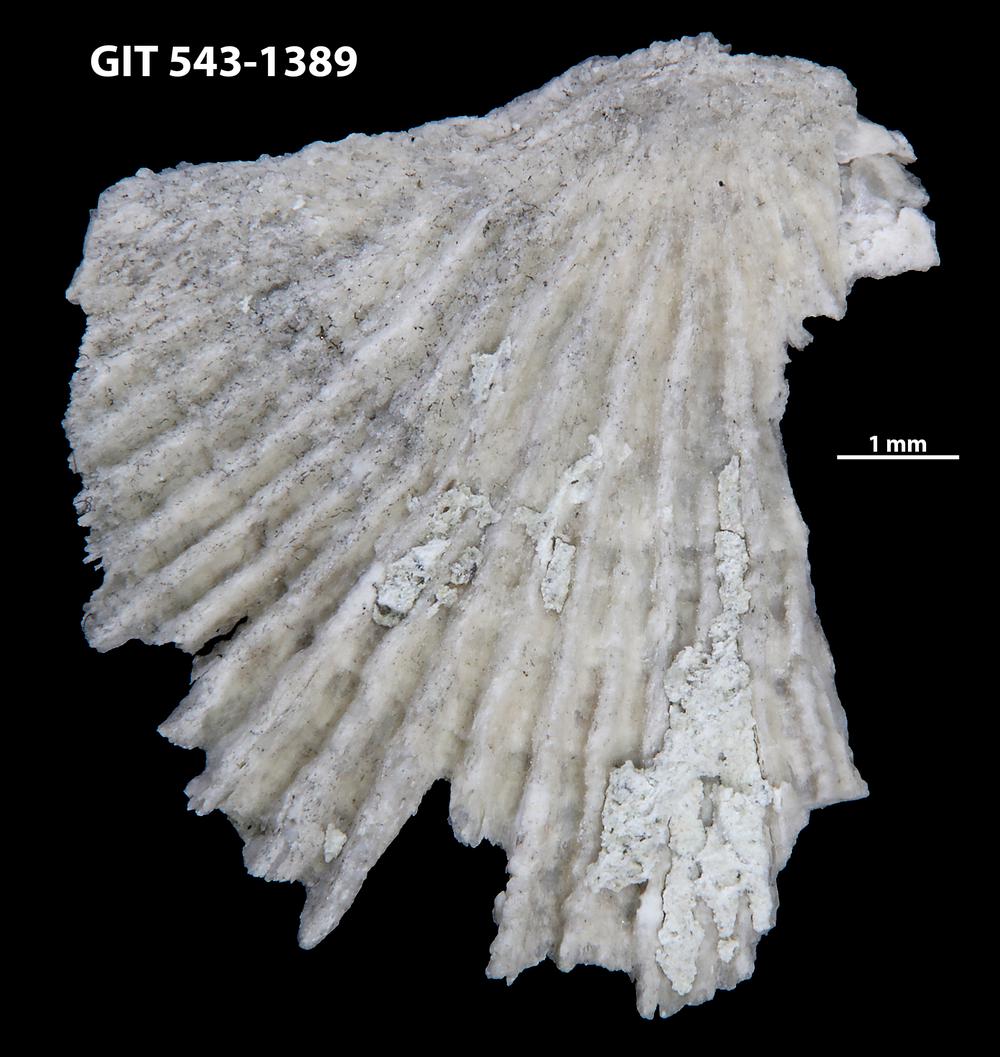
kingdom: Animalia
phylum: Brachiopoda
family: Kullervoidae
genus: Kullervo
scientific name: Kullervo
